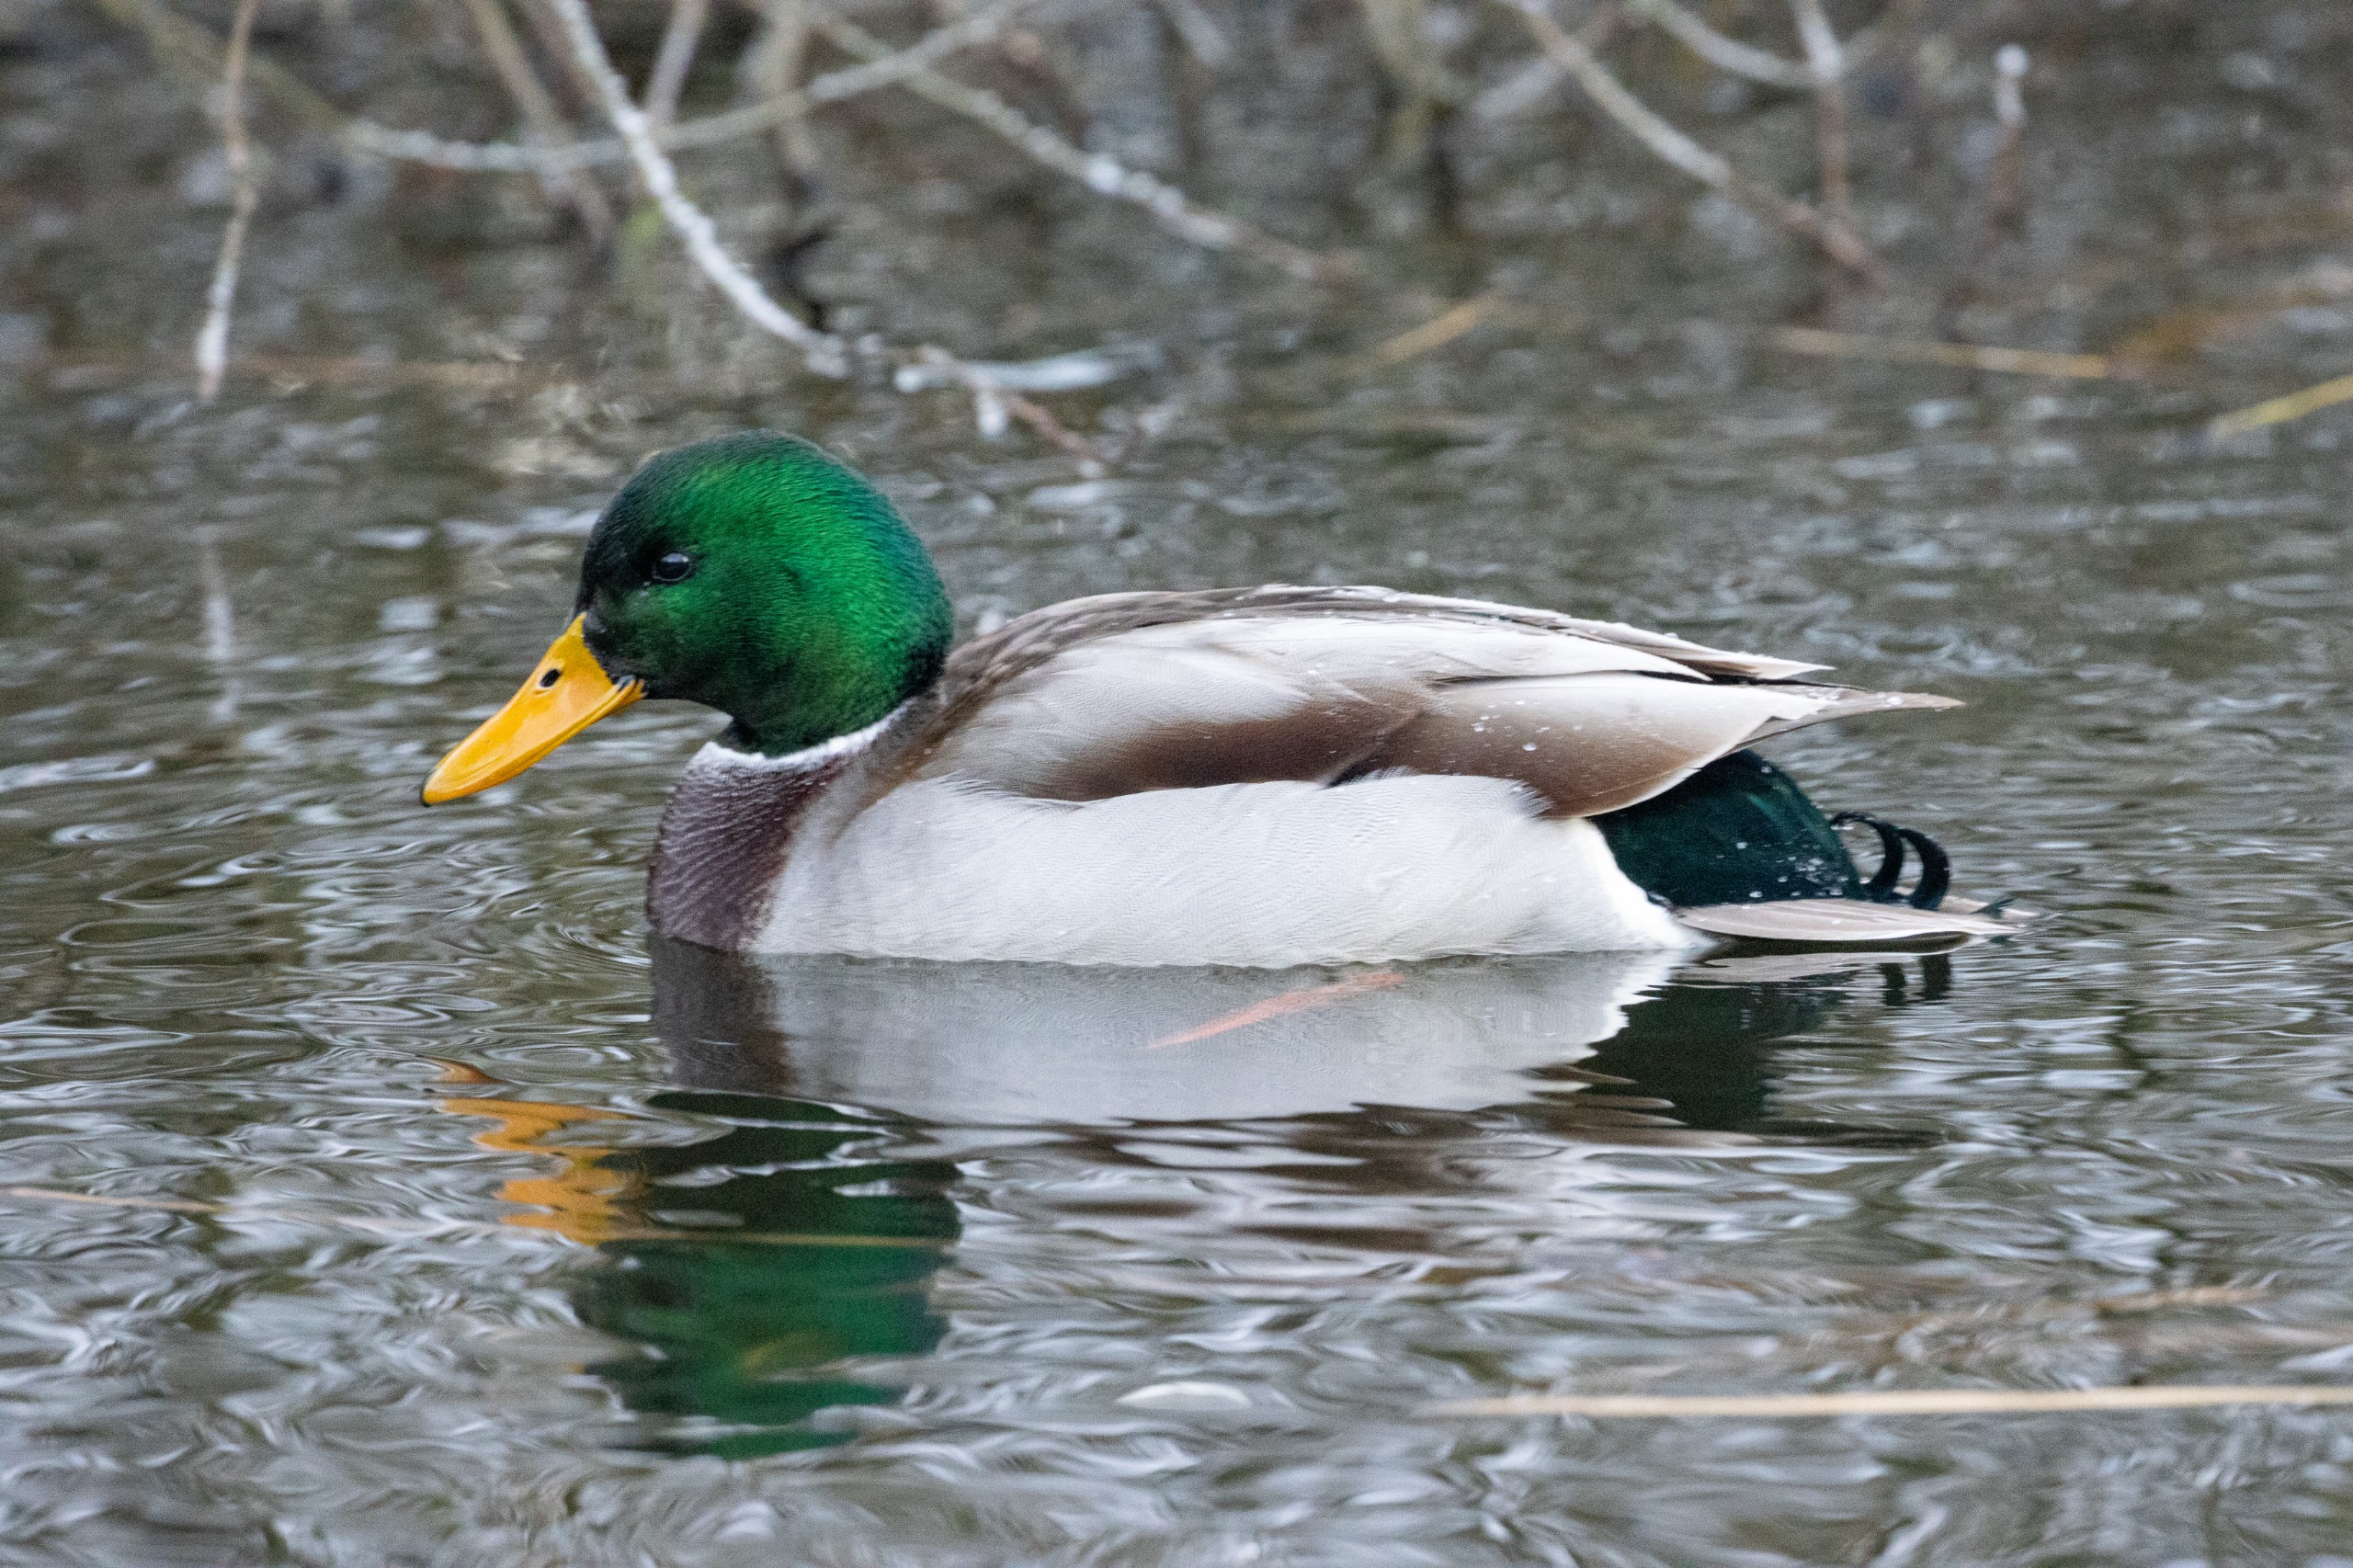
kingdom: Animalia
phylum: Chordata
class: Aves
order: Anseriformes
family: Anatidae
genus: Anas
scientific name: Anas platyrhynchos
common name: Gråand
